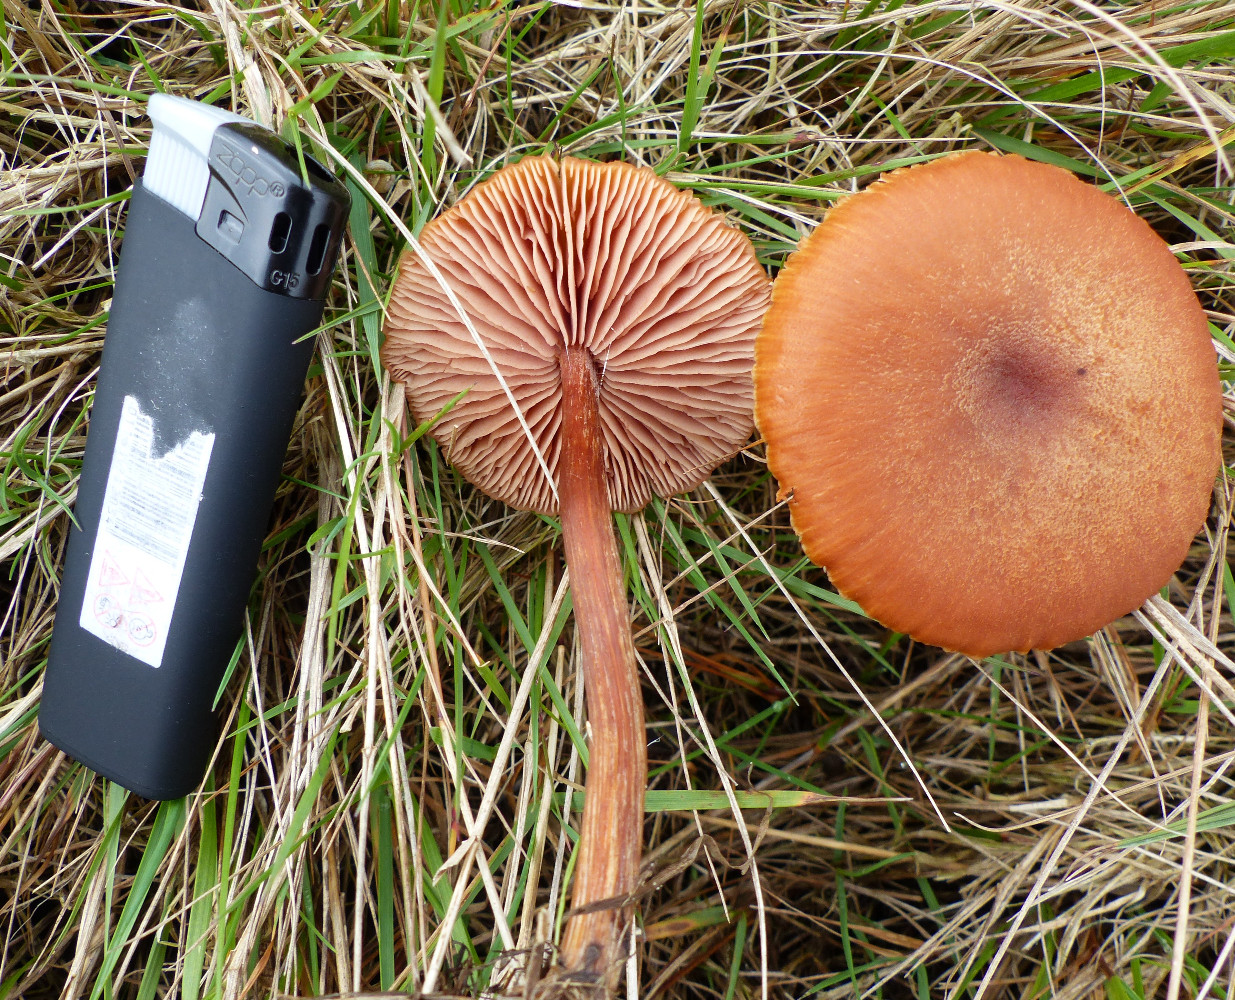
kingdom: Fungi
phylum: Basidiomycota
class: Agaricomycetes
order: Agaricales
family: Hydnangiaceae
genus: Laccaria
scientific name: Laccaria proxima
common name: stor ametysthat
